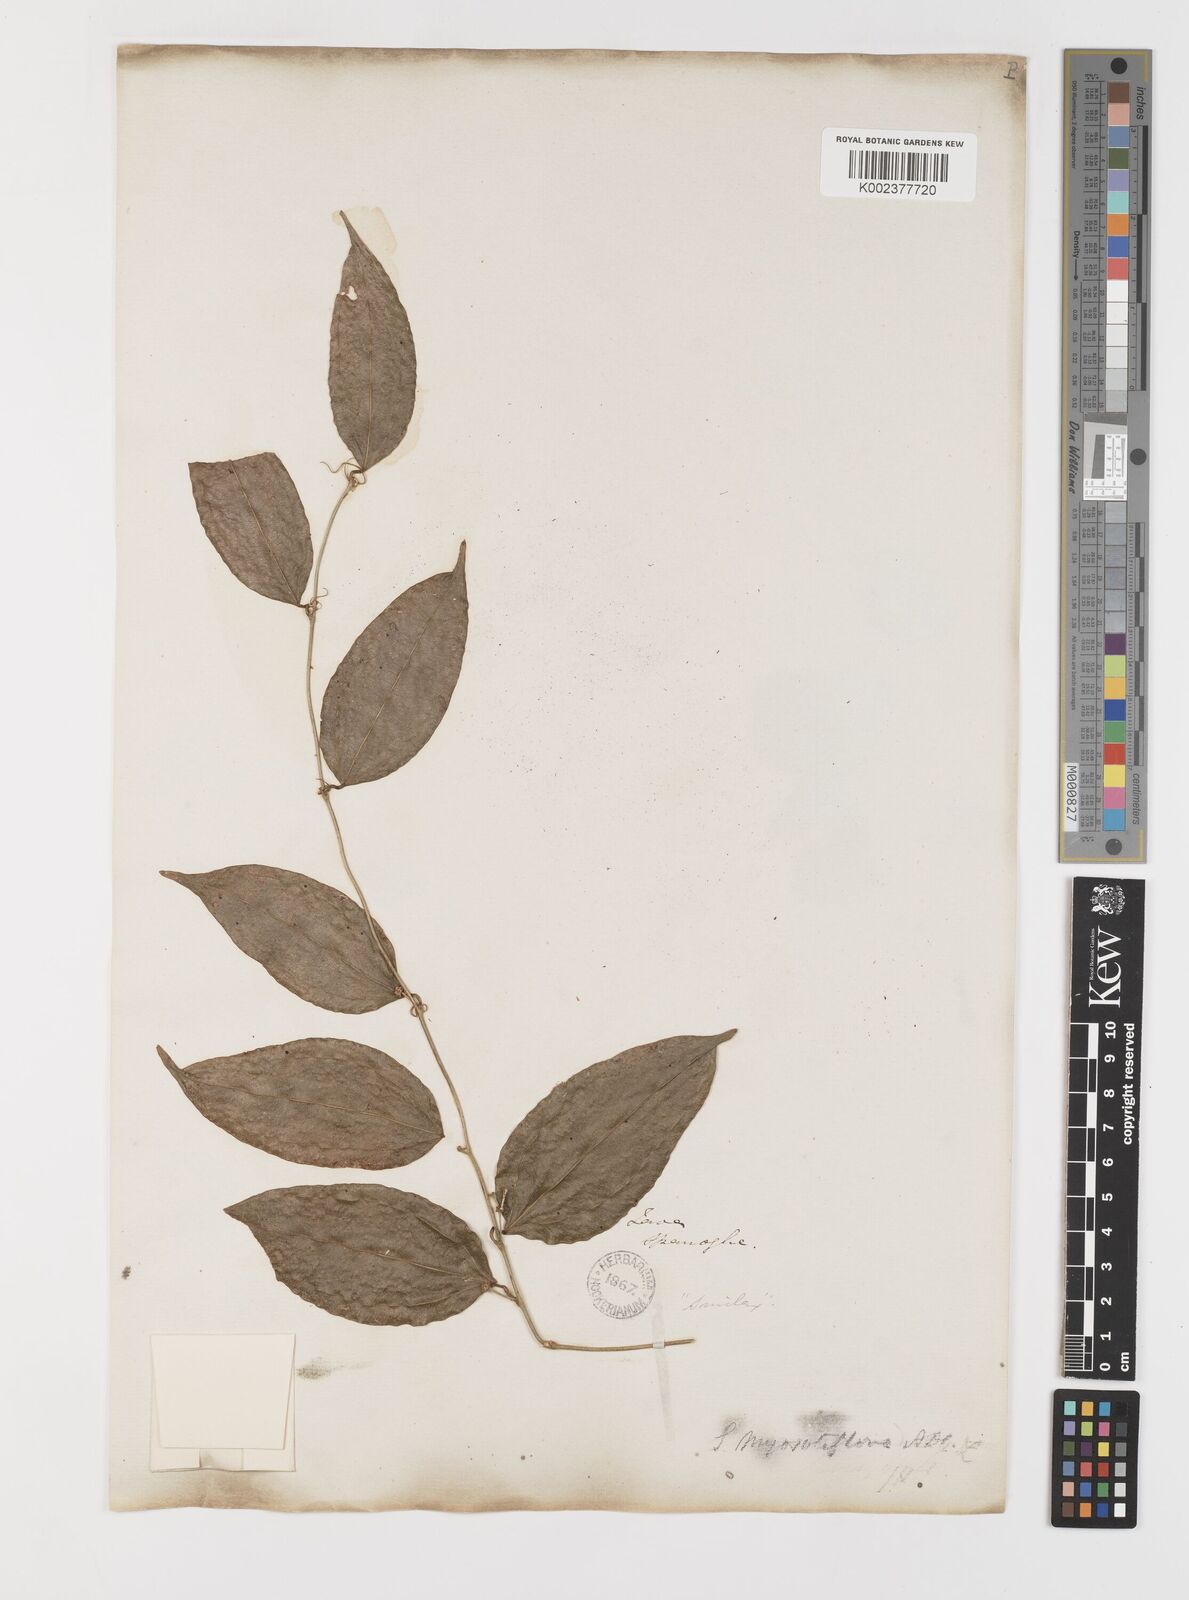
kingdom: Plantae
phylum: Tracheophyta
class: Liliopsida
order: Liliales
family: Smilacaceae
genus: Smilax
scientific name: Smilax myosotiflora
